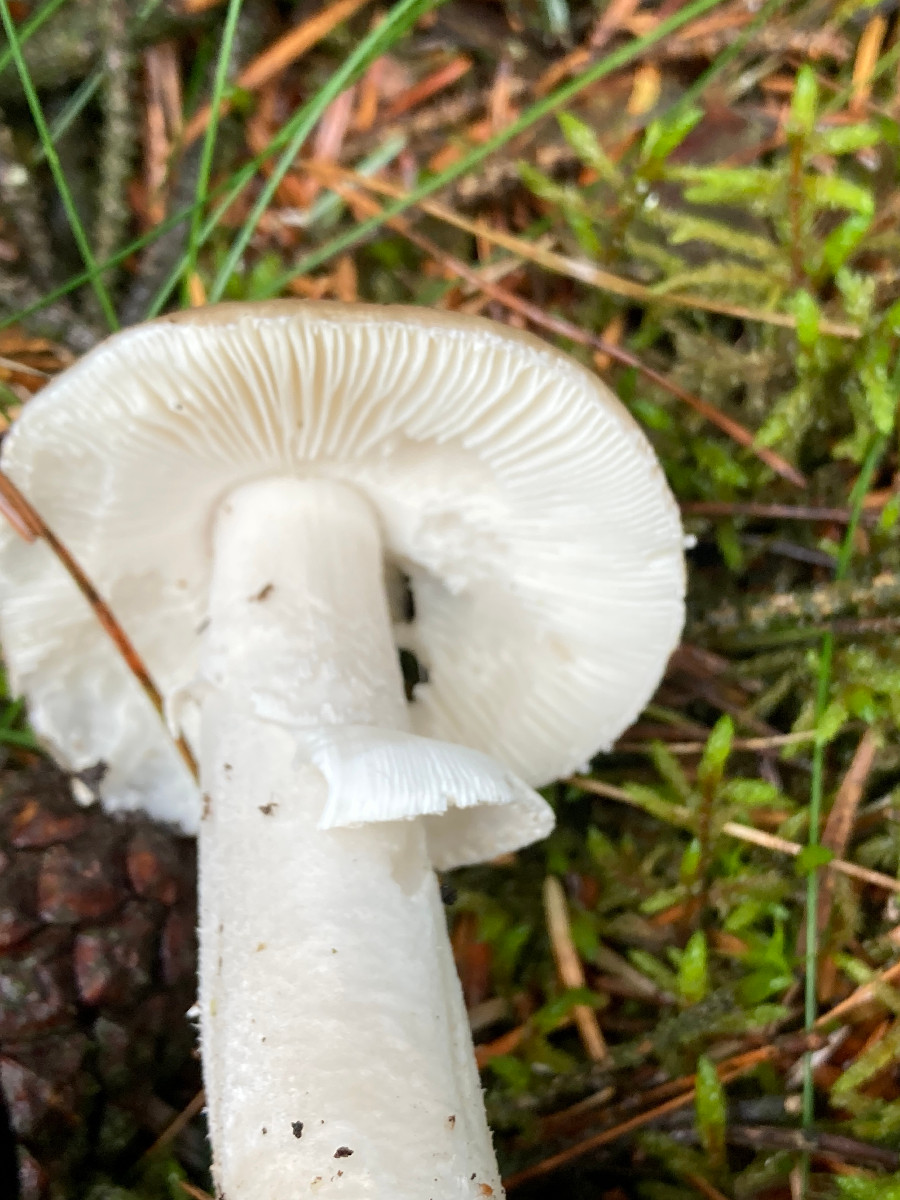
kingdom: Fungi
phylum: Basidiomycota
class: Agaricomycetes
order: Agaricales
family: Amanitaceae
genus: Amanita
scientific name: Amanita
